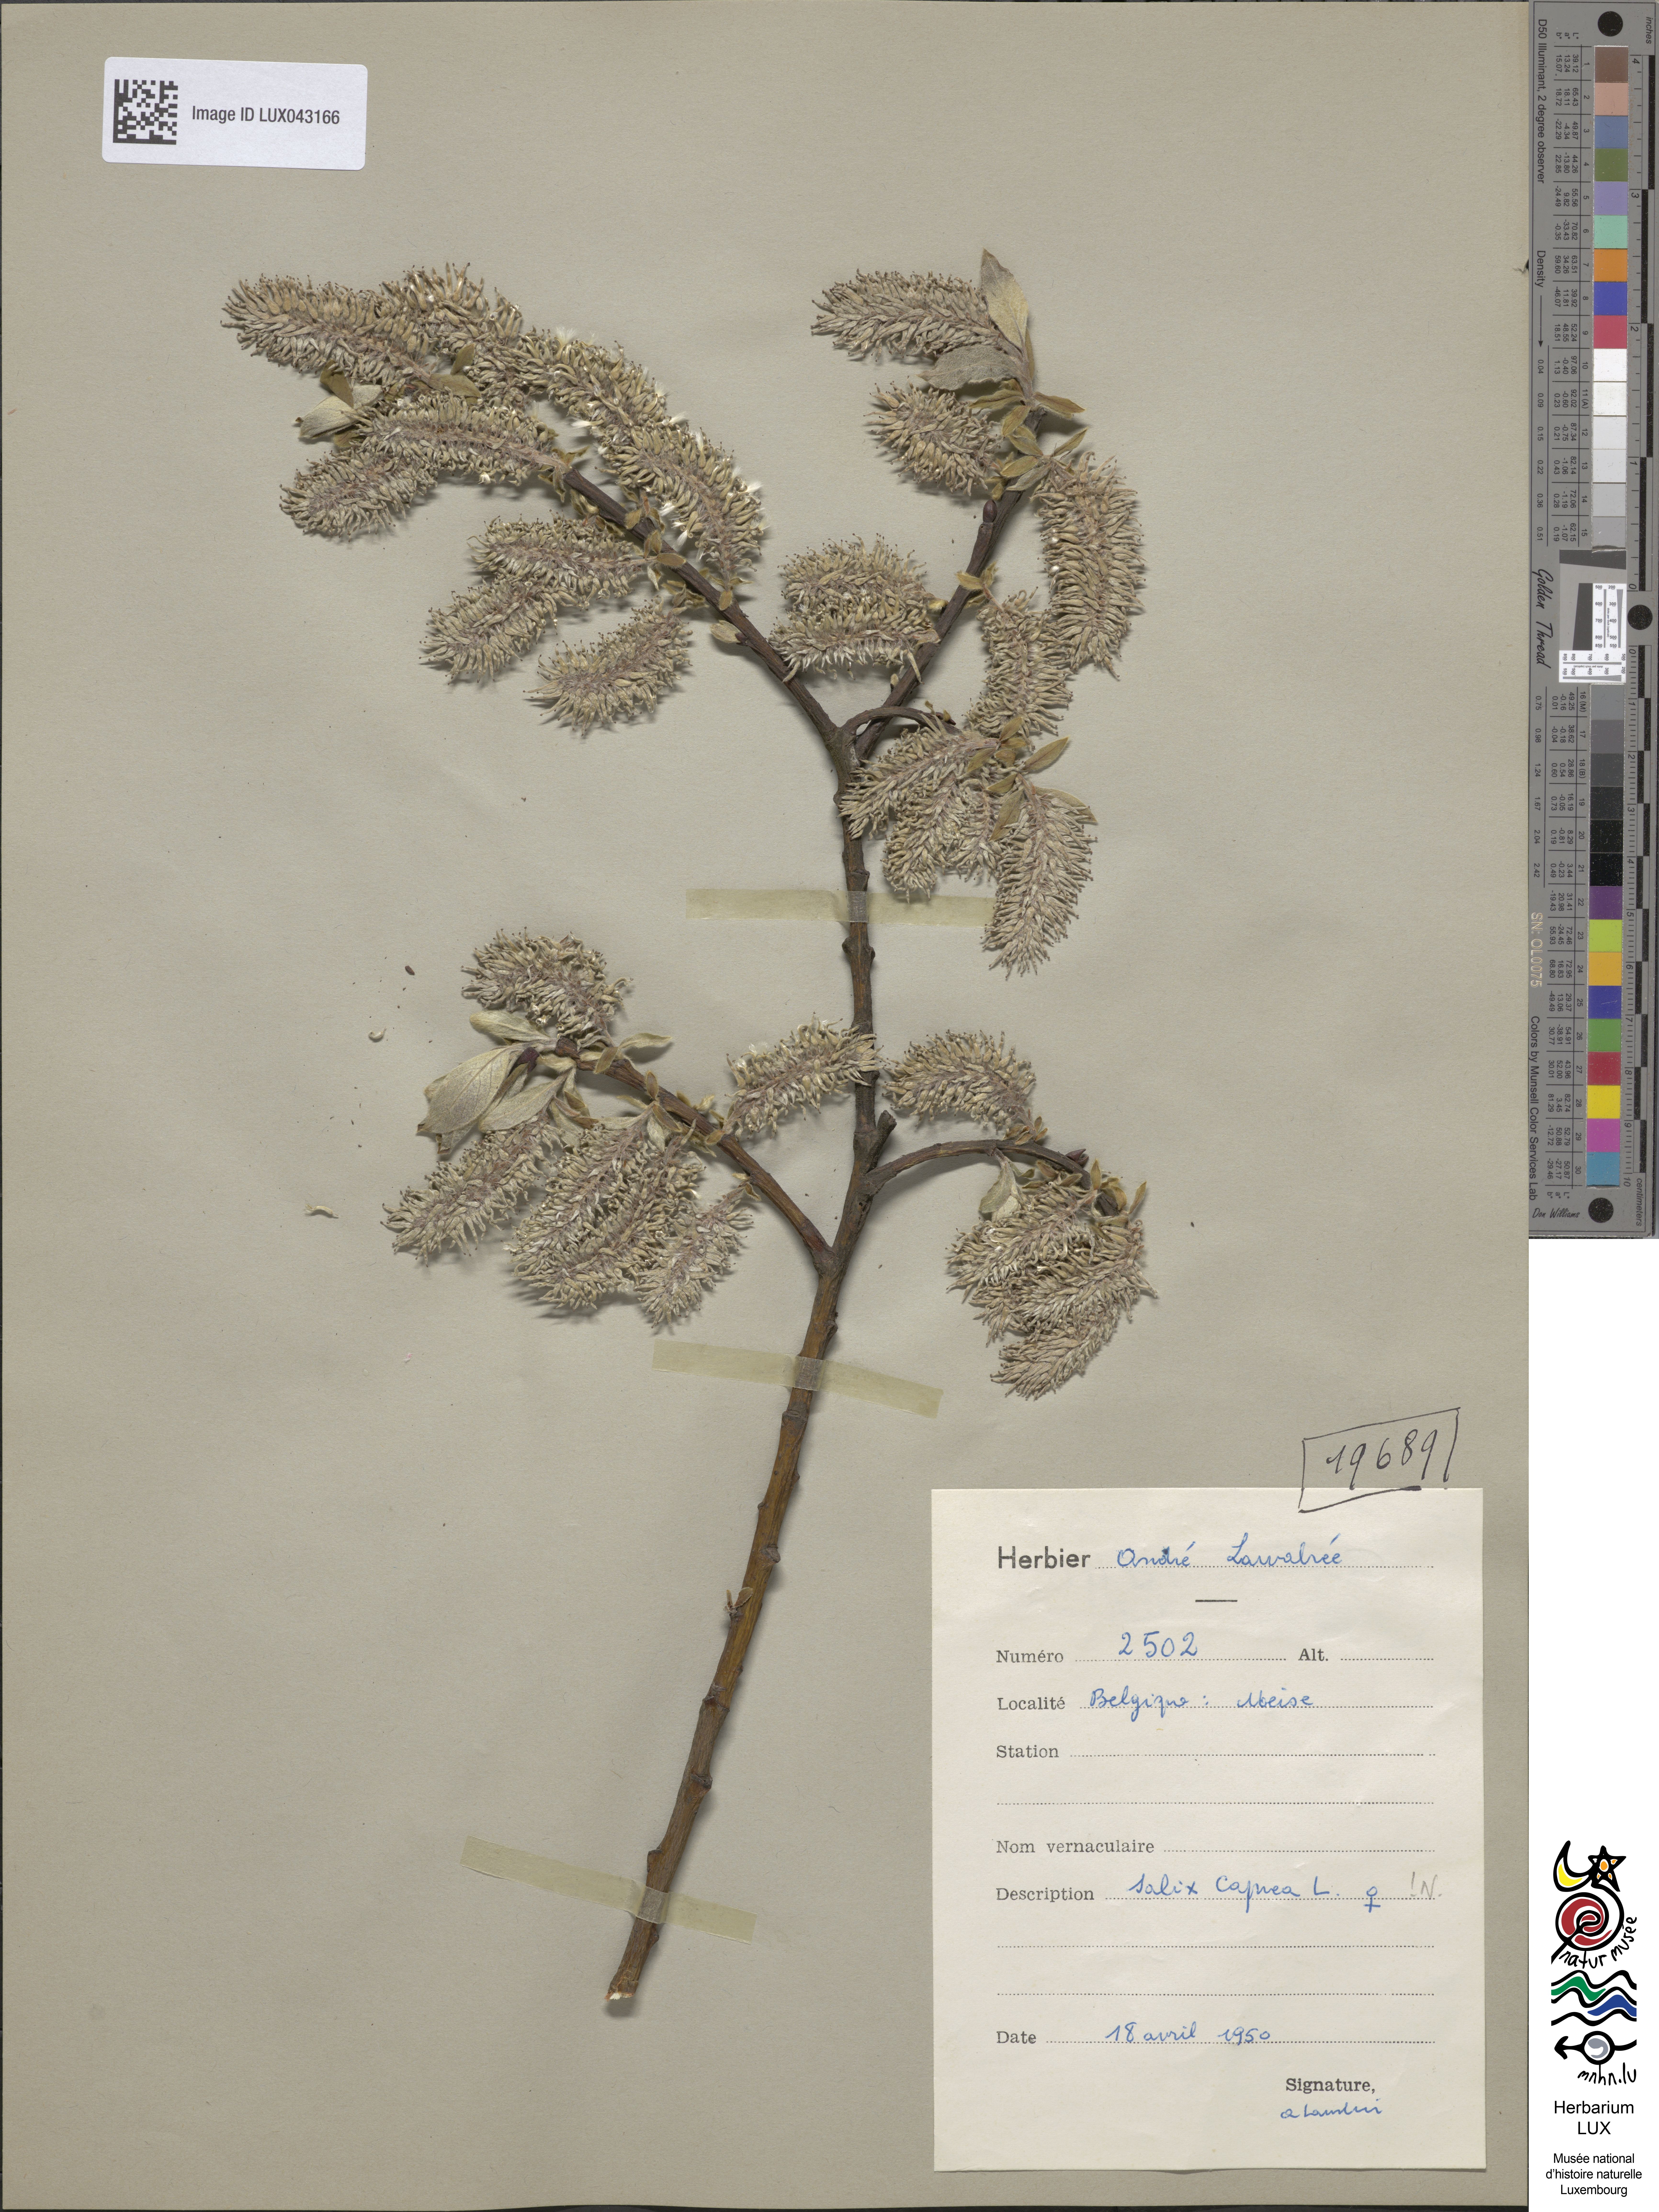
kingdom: Plantae
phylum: Tracheophyta
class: Magnoliopsida
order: Malpighiales
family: Salicaceae
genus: Salix
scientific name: Salix caprea
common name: Goat willow
